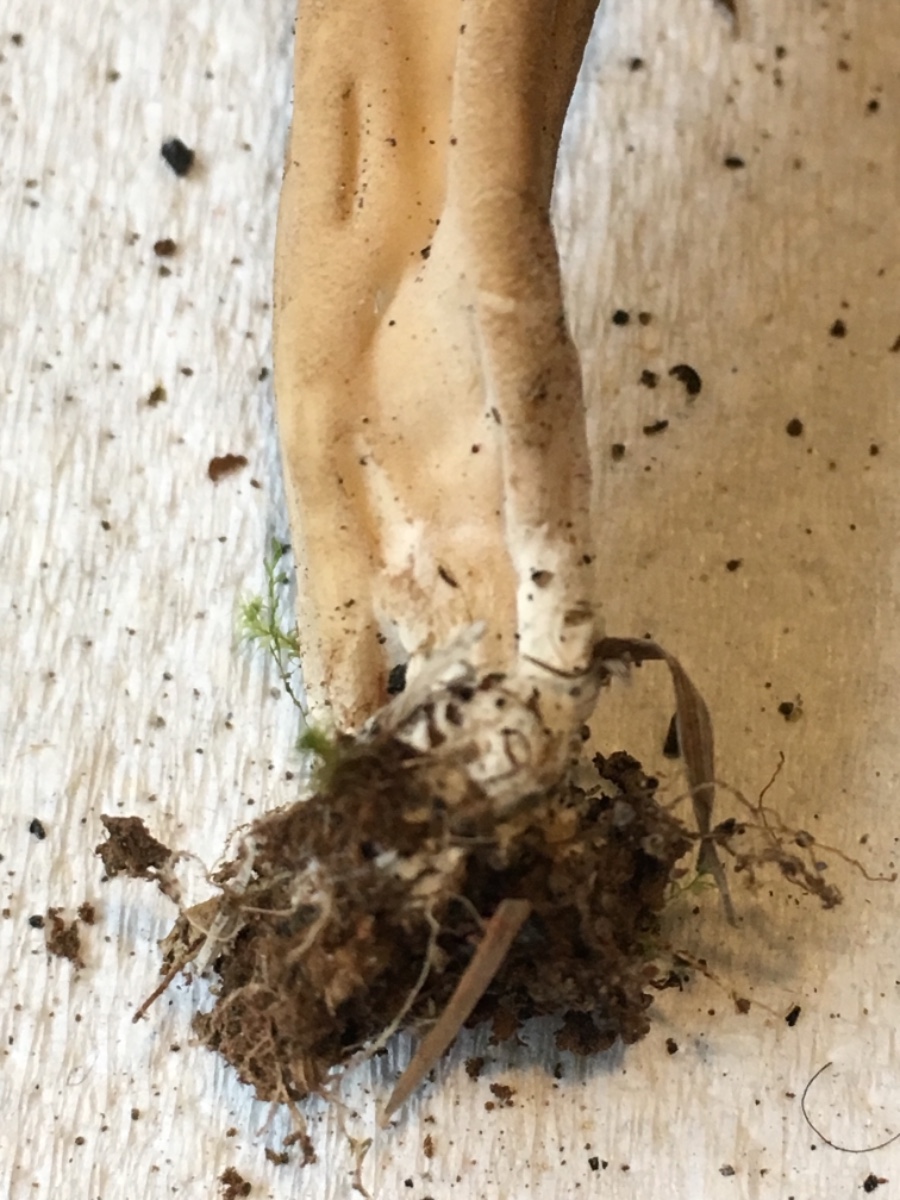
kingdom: Fungi
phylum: Ascomycota
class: Pezizomycetes
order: Pezizales
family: Helvellaceae
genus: Helvella
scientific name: Helvella
